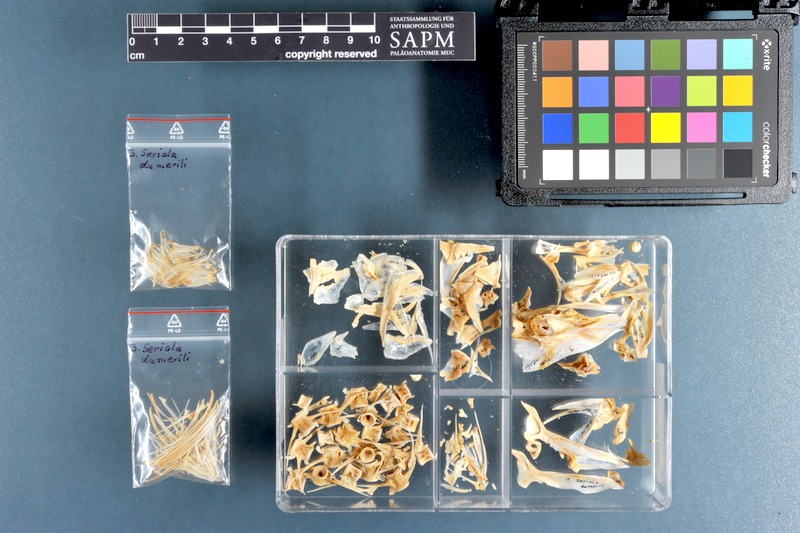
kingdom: Animalia
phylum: Chordata
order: Perciformes
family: Carangidae
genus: Seriola
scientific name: Seriola dumerili
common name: Greater amberjack
